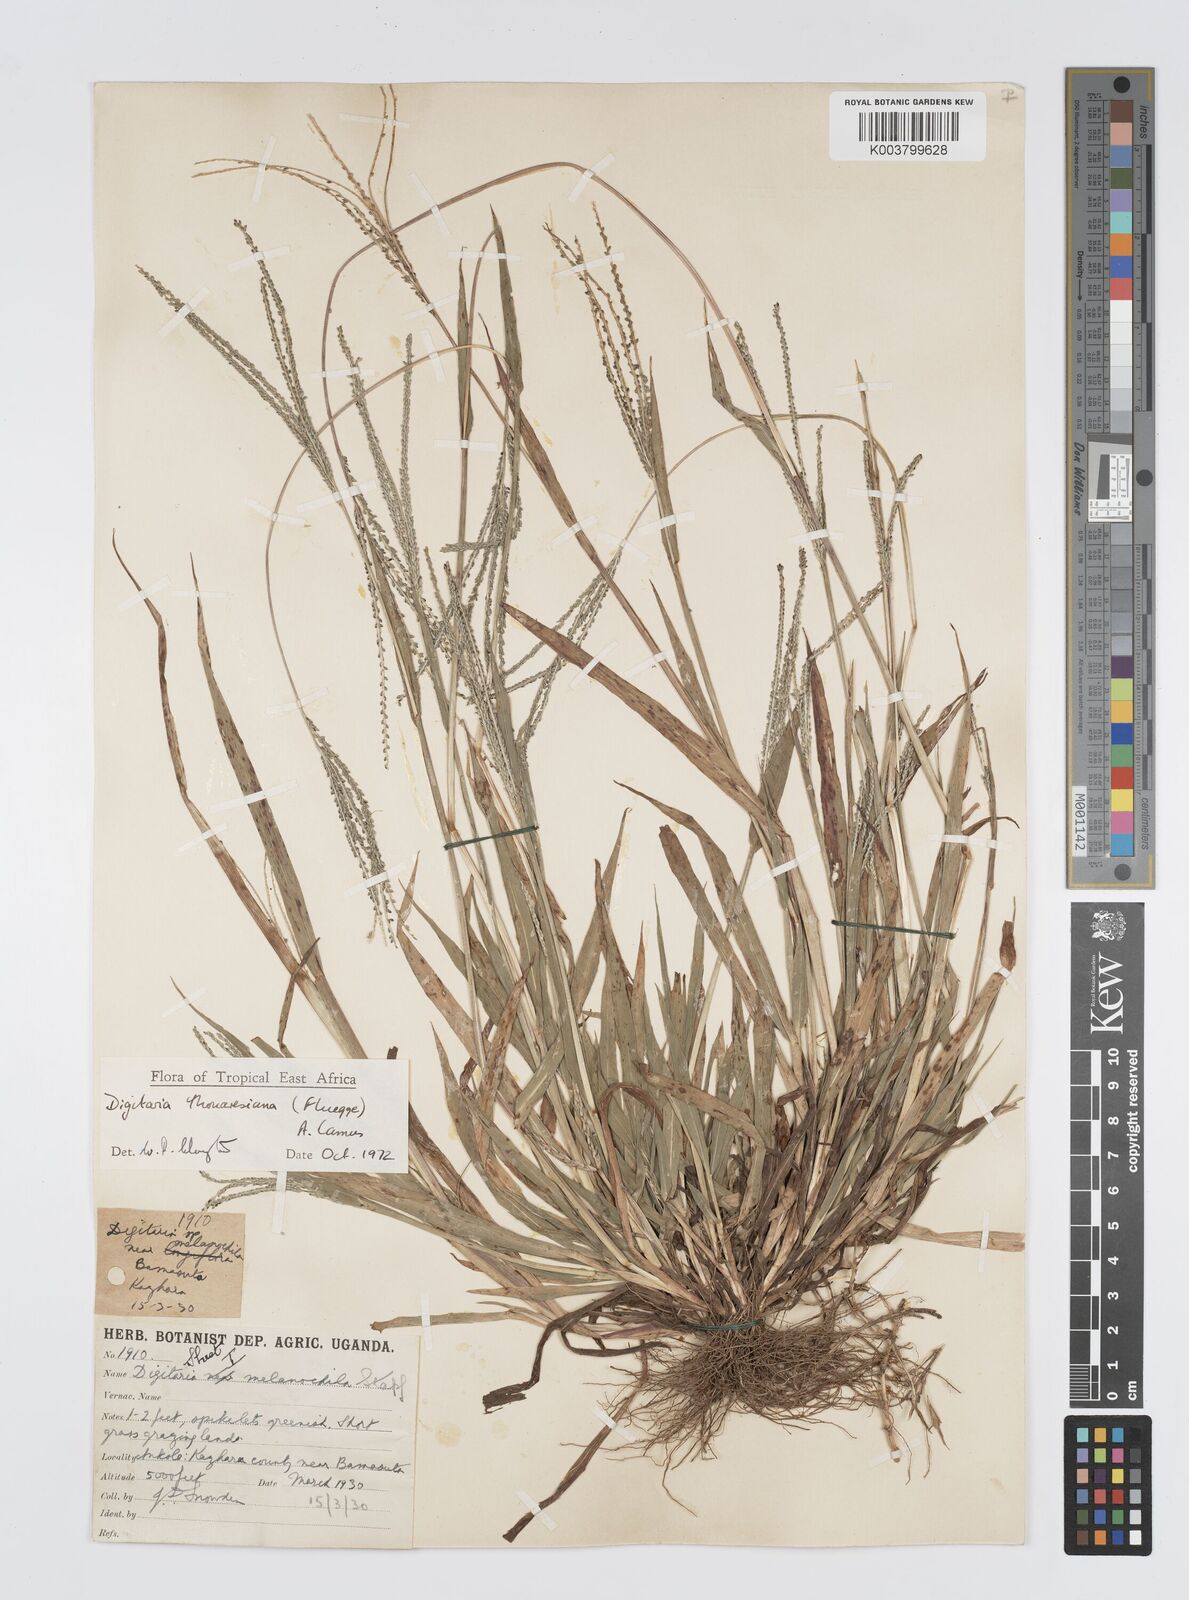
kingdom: Plantae
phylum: Tracheophyta
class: Liliopsida
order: Poales
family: Poaceae
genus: Digitaria
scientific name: Digitaria thouarsiana
